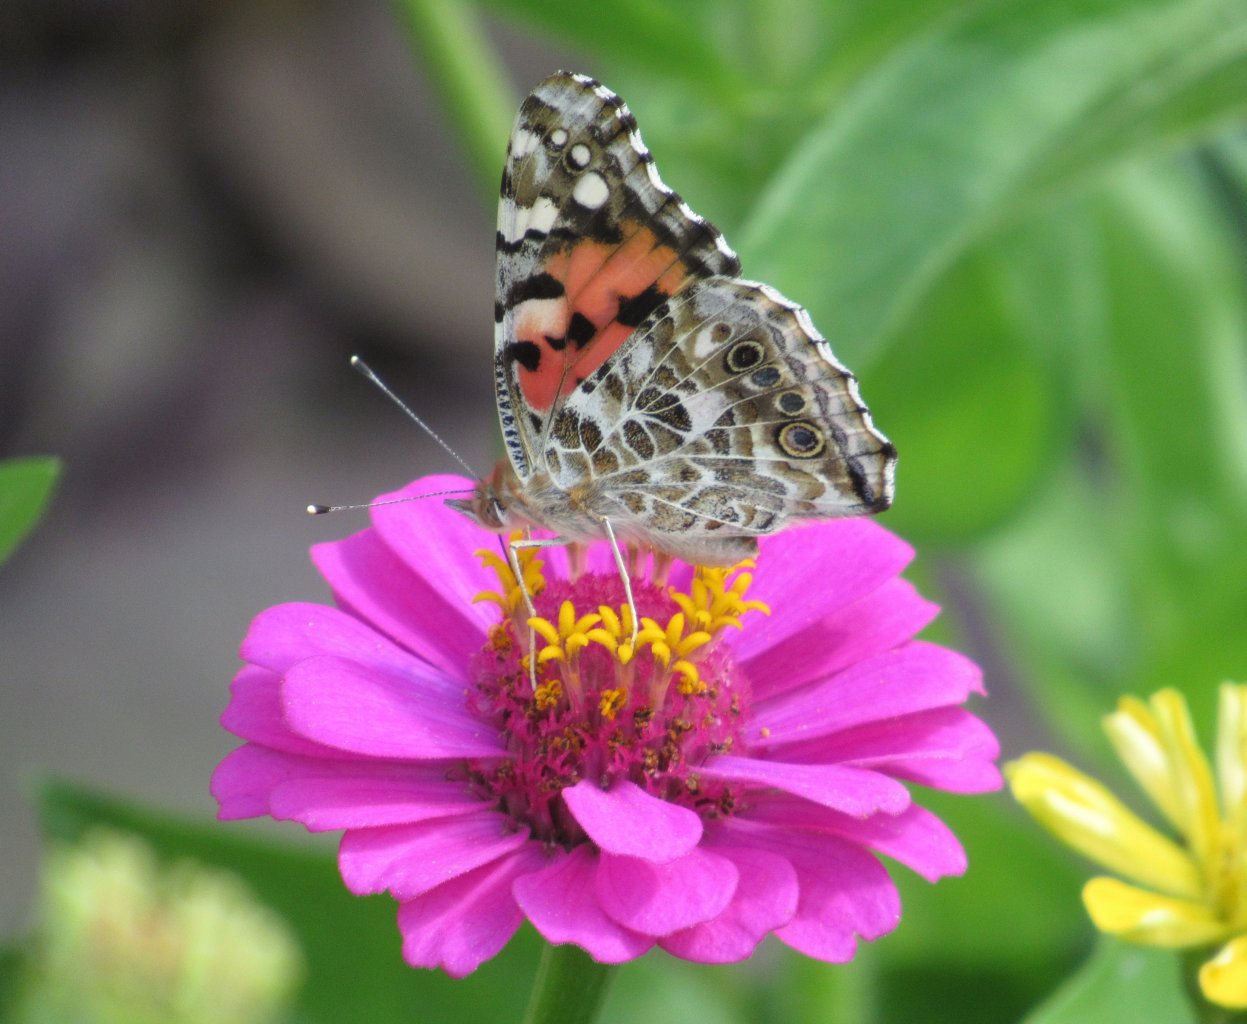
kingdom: Animalia
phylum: Arthropoda
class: Insecta
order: Lepidoptera
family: Nymphalidae
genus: Vanessa
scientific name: Vanessa cardui
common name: Painted Lady
